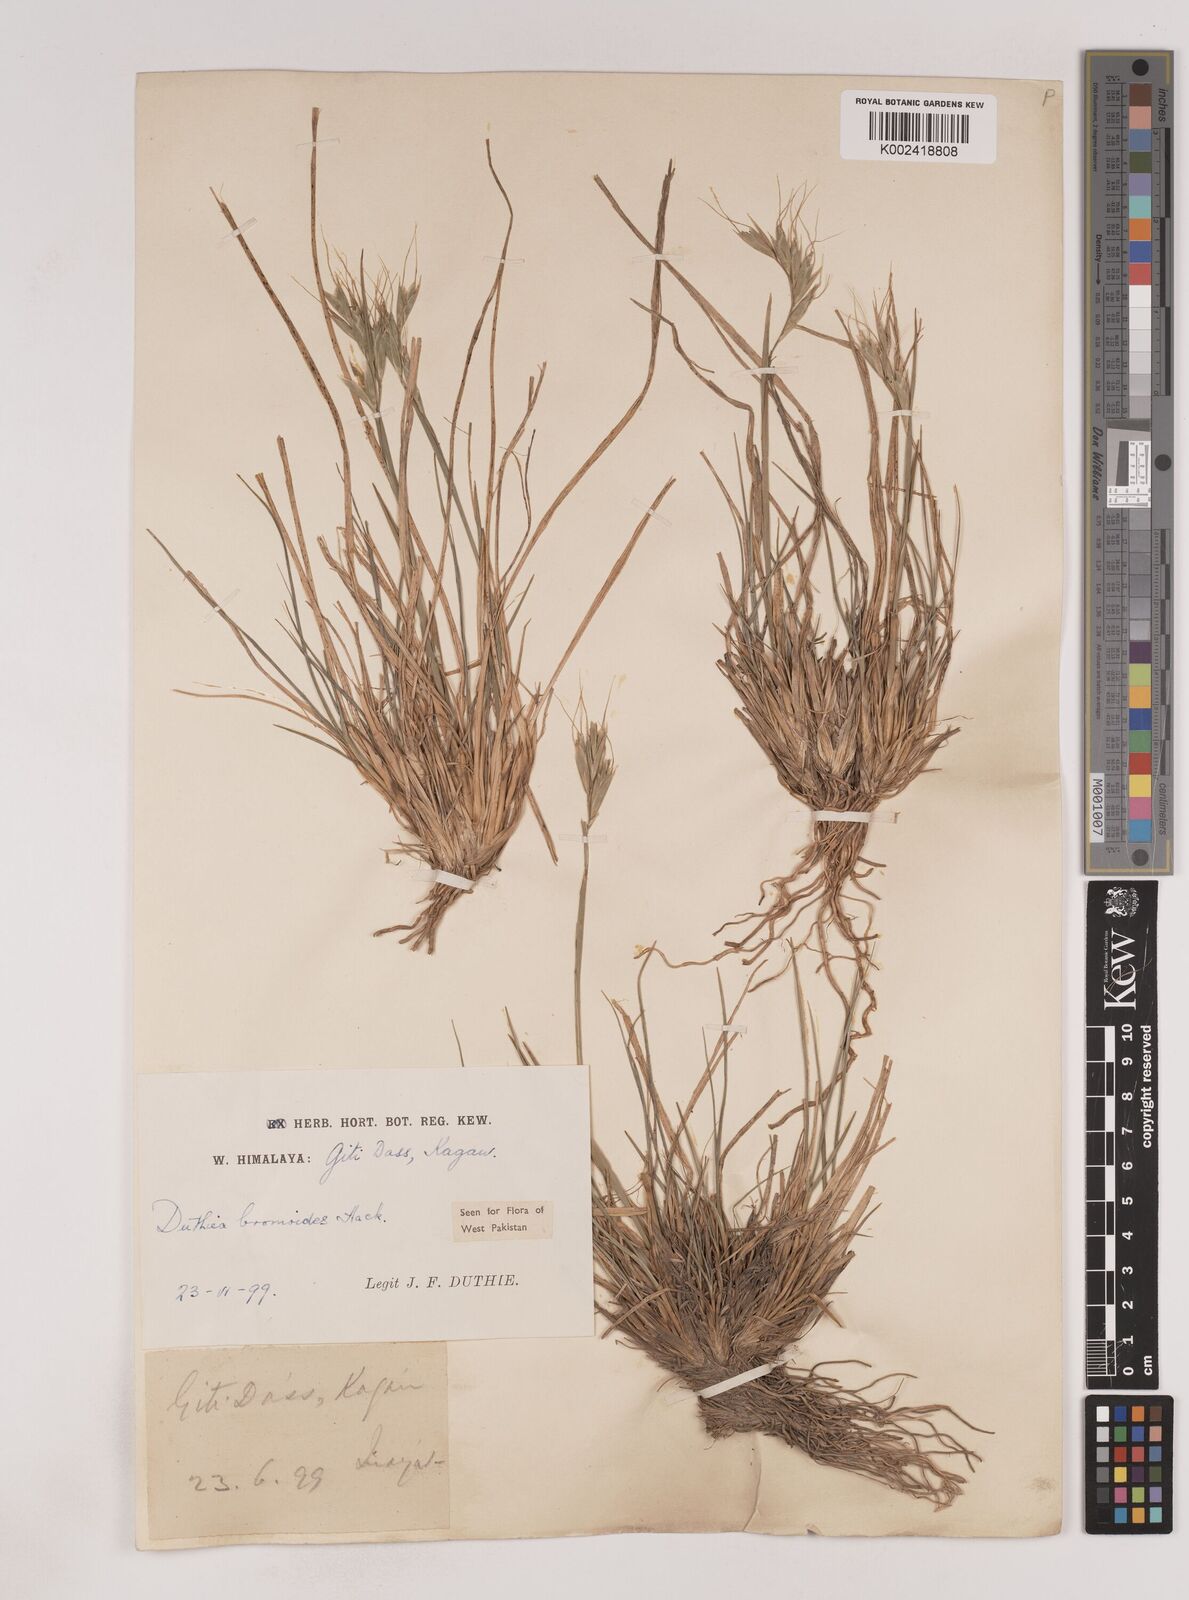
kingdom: Plantae
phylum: Tracheophyta
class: Liliopsida
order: Poales
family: Poaceae
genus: Duthiea
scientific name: Duthiea bromoides
